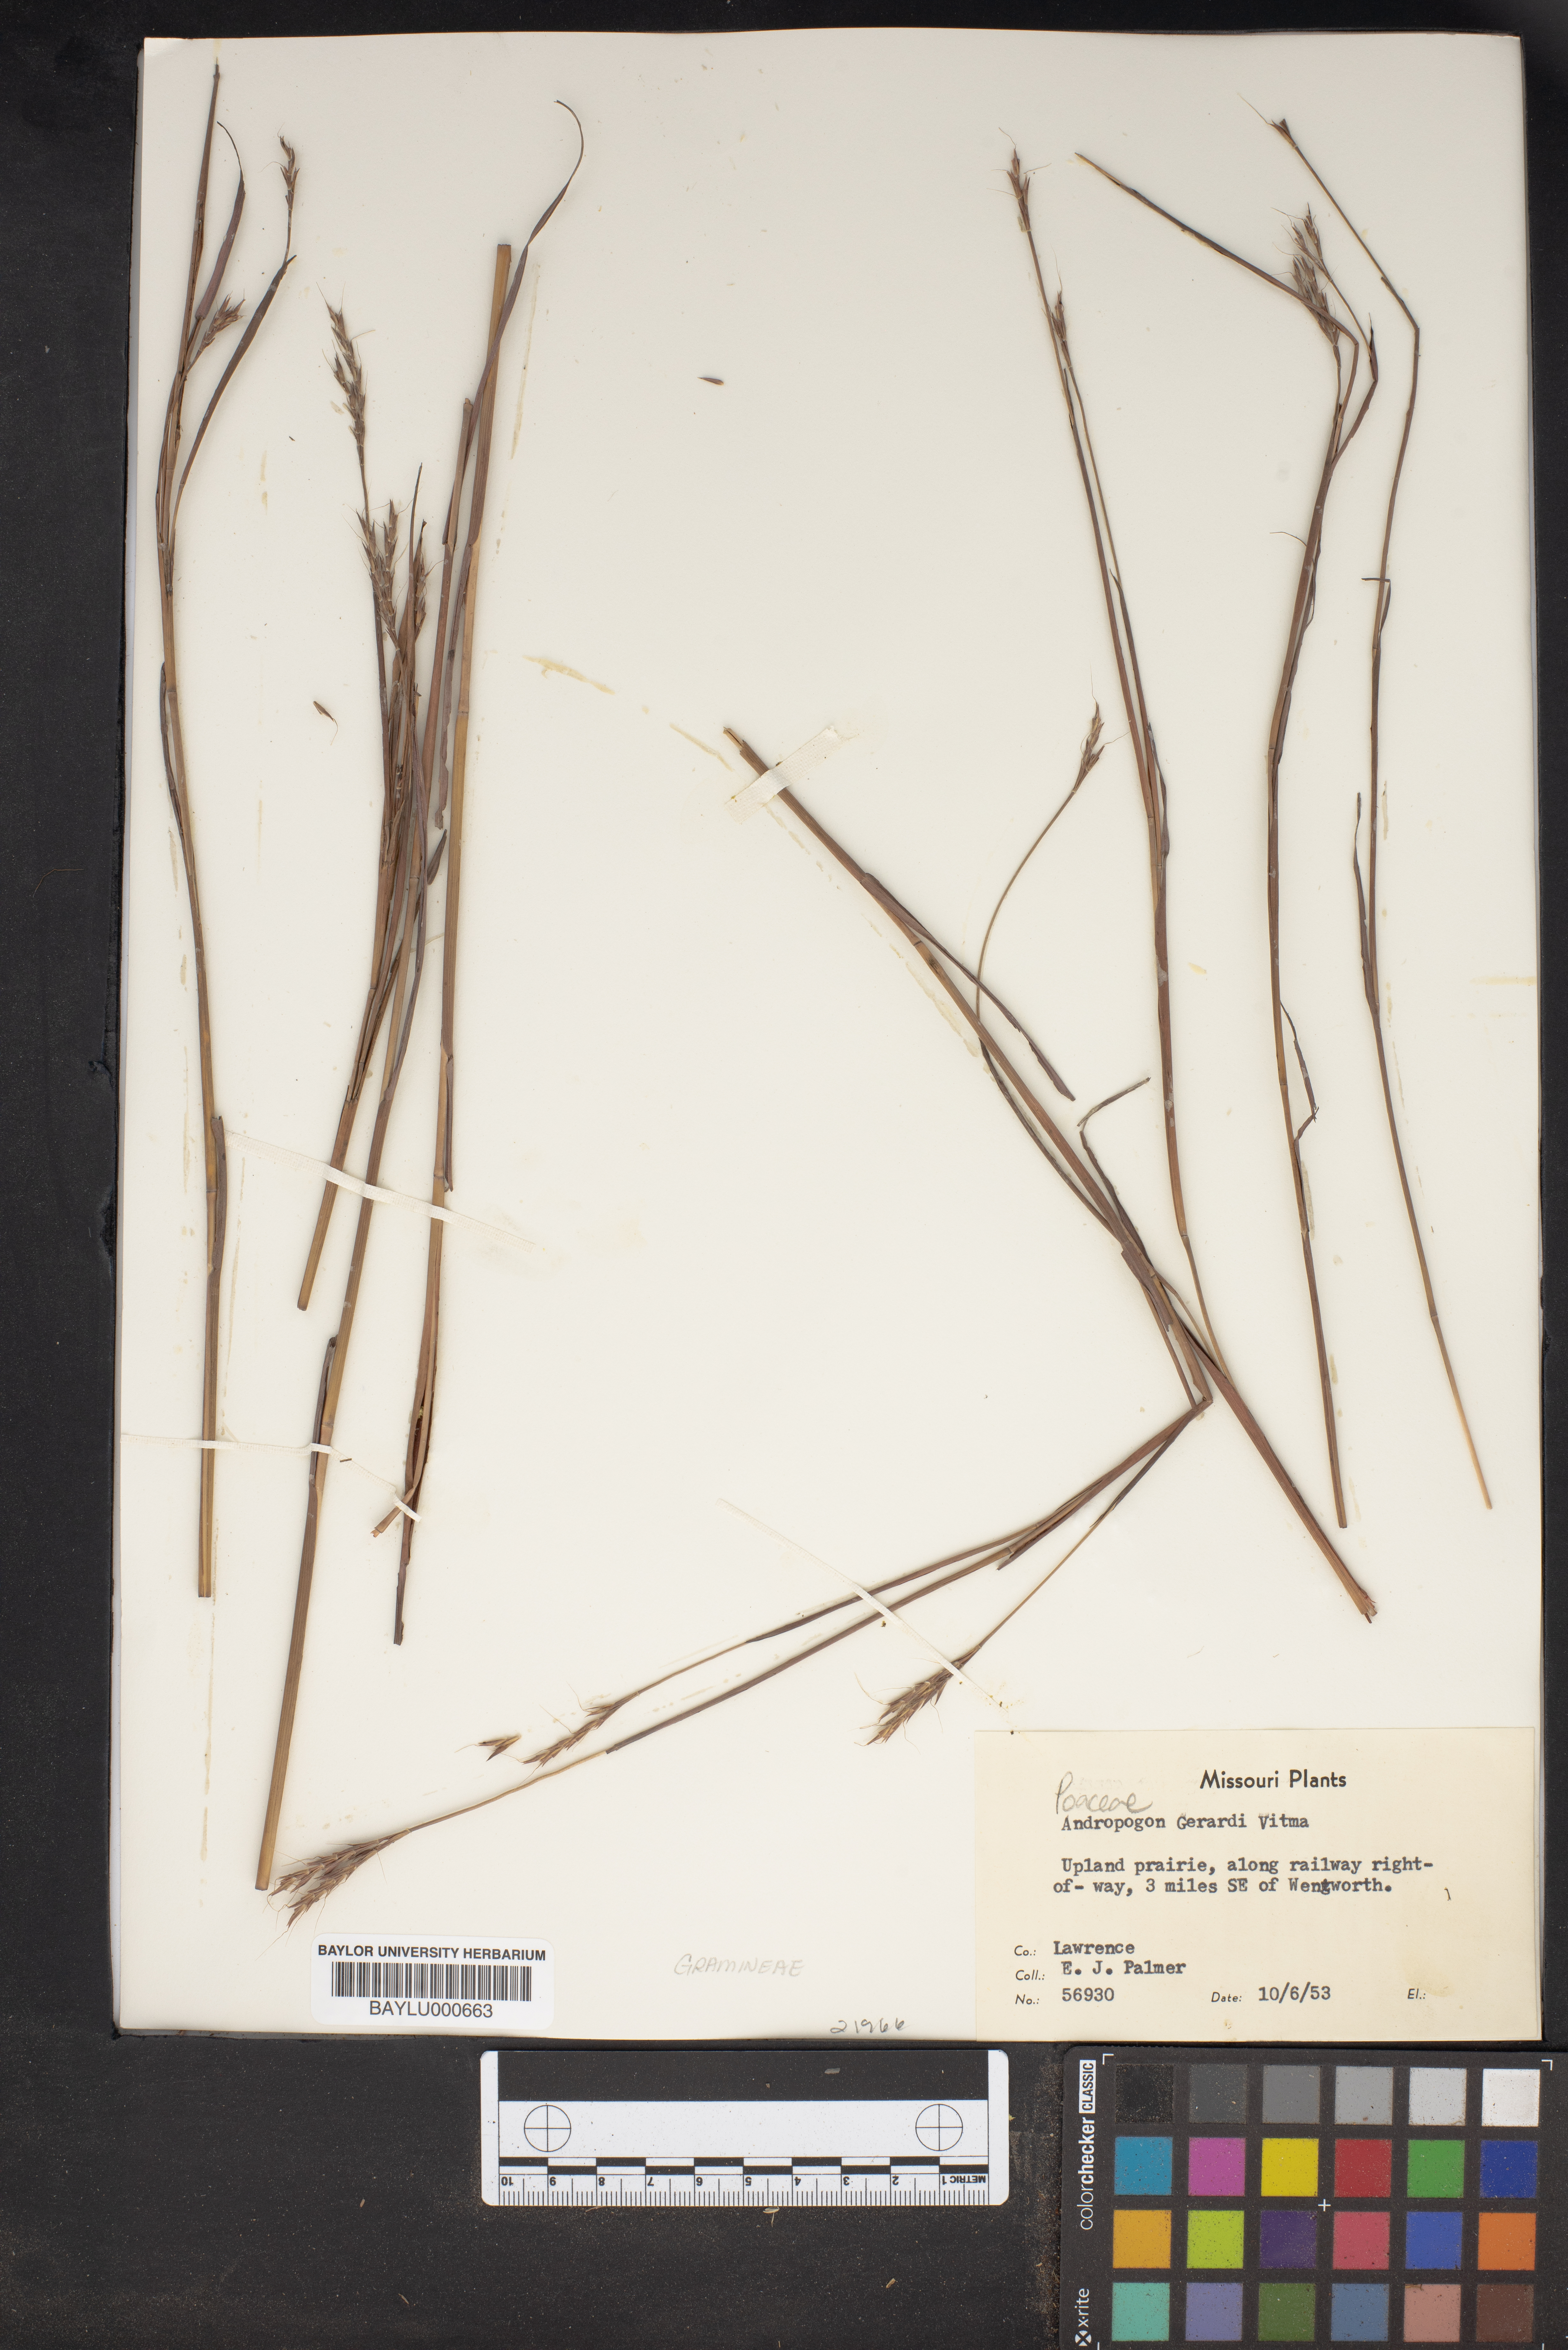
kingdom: Plantae
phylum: Tracheophyta
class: Liliopsida
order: Poales
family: Poaceae
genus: Andropogon
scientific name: Andropogon gerardi
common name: Big bluestem
